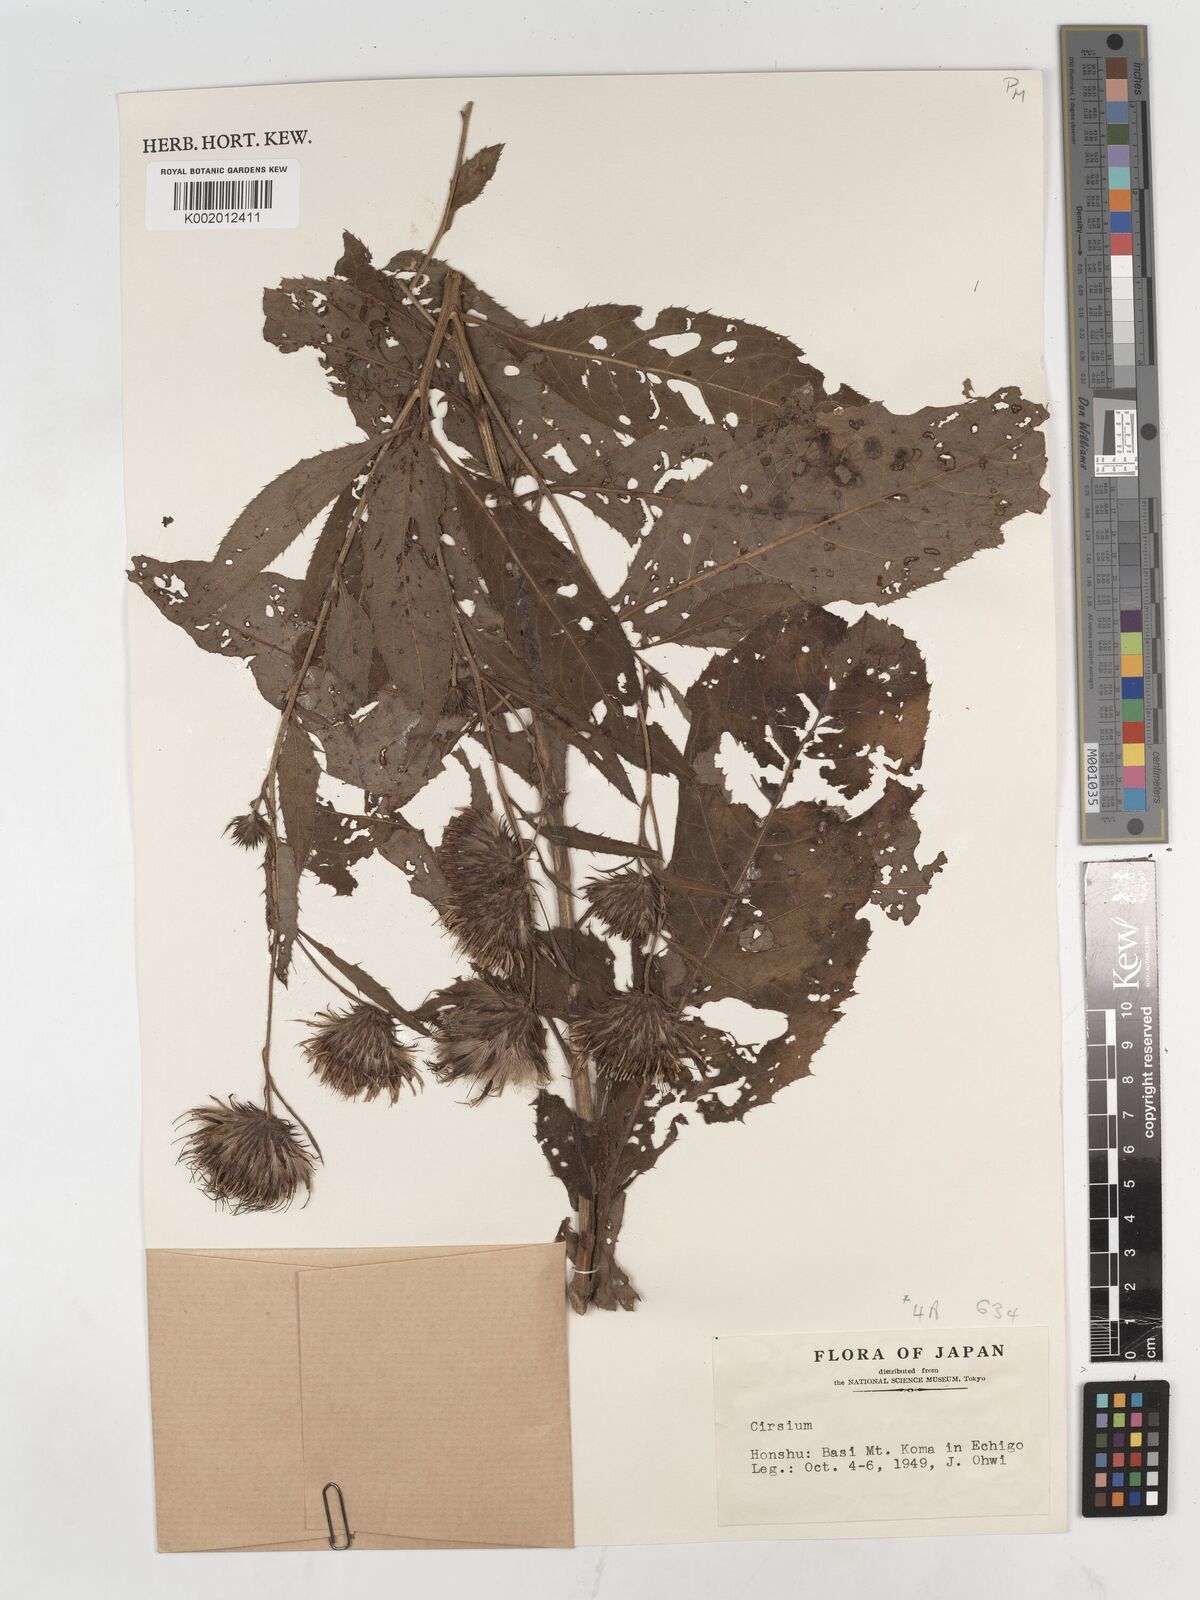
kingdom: Plantae
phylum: Tracheophyta
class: Magnoliopsida
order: Asterales
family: Asteraceae
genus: Cirsium
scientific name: Cirsium
